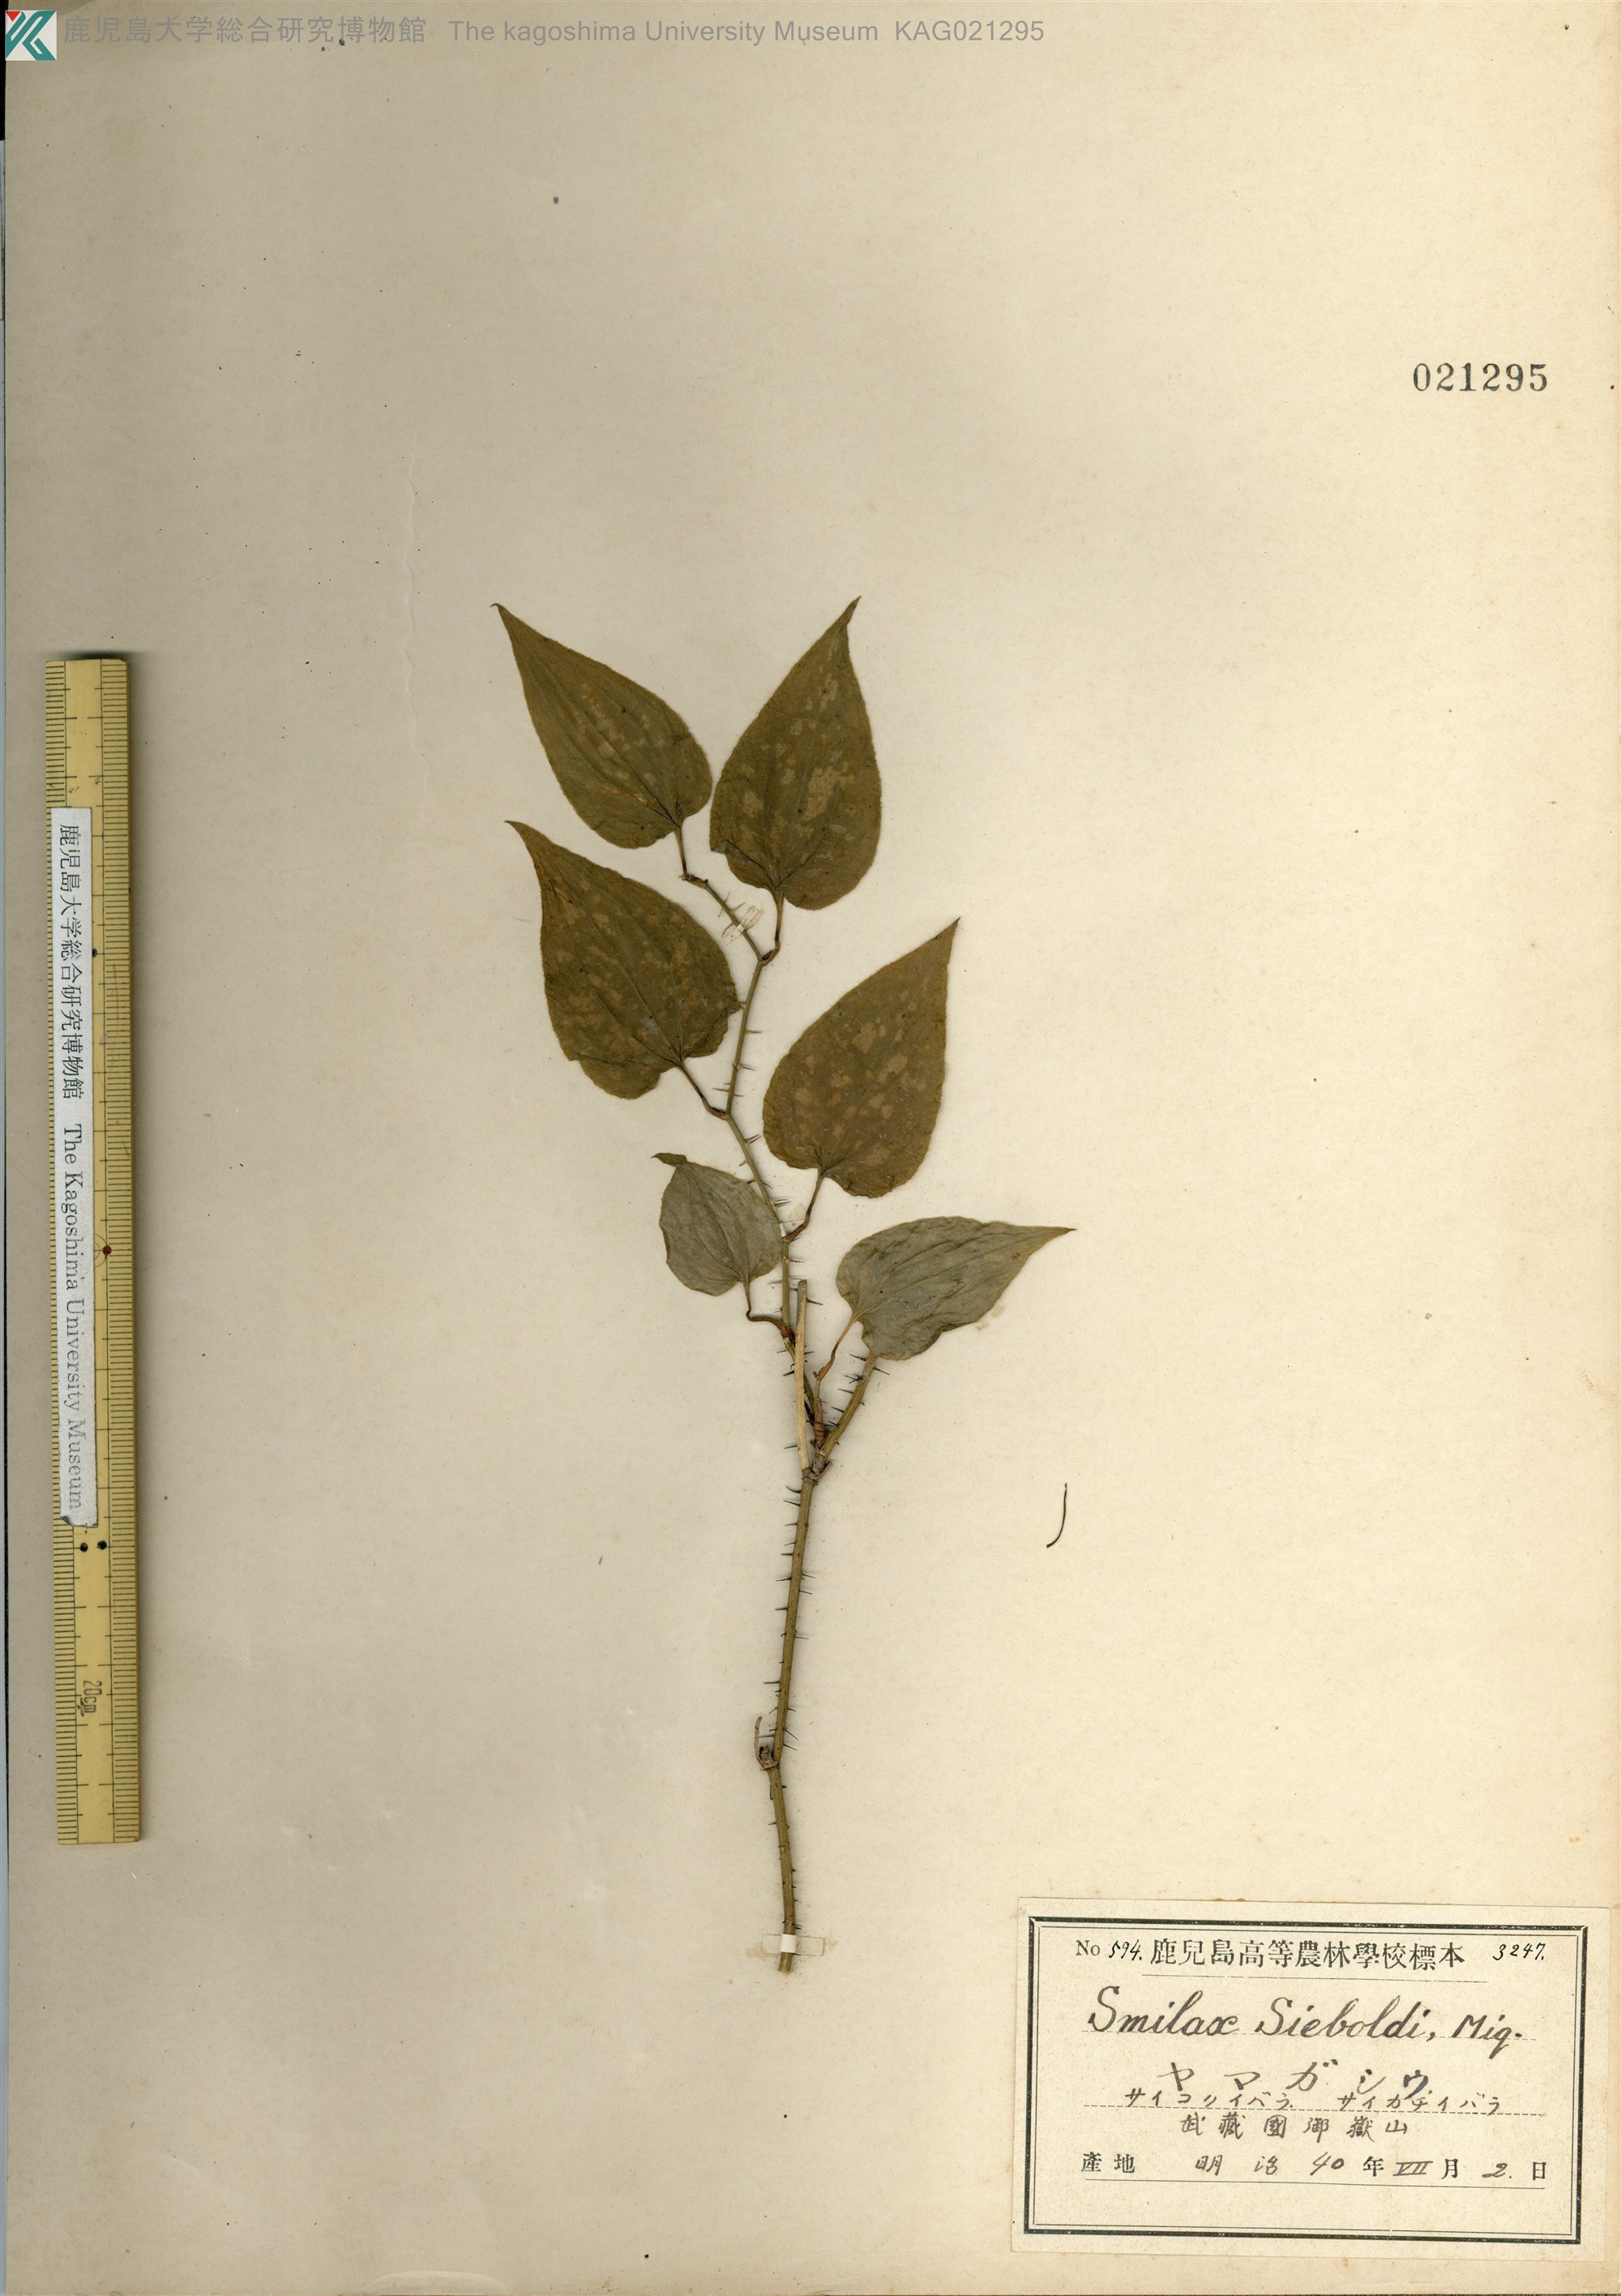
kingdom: Plantae
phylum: Tracheophyta
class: Liliopsida
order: Liliales
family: Smilacaceae
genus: Smilax
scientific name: Smilax sieboldii
